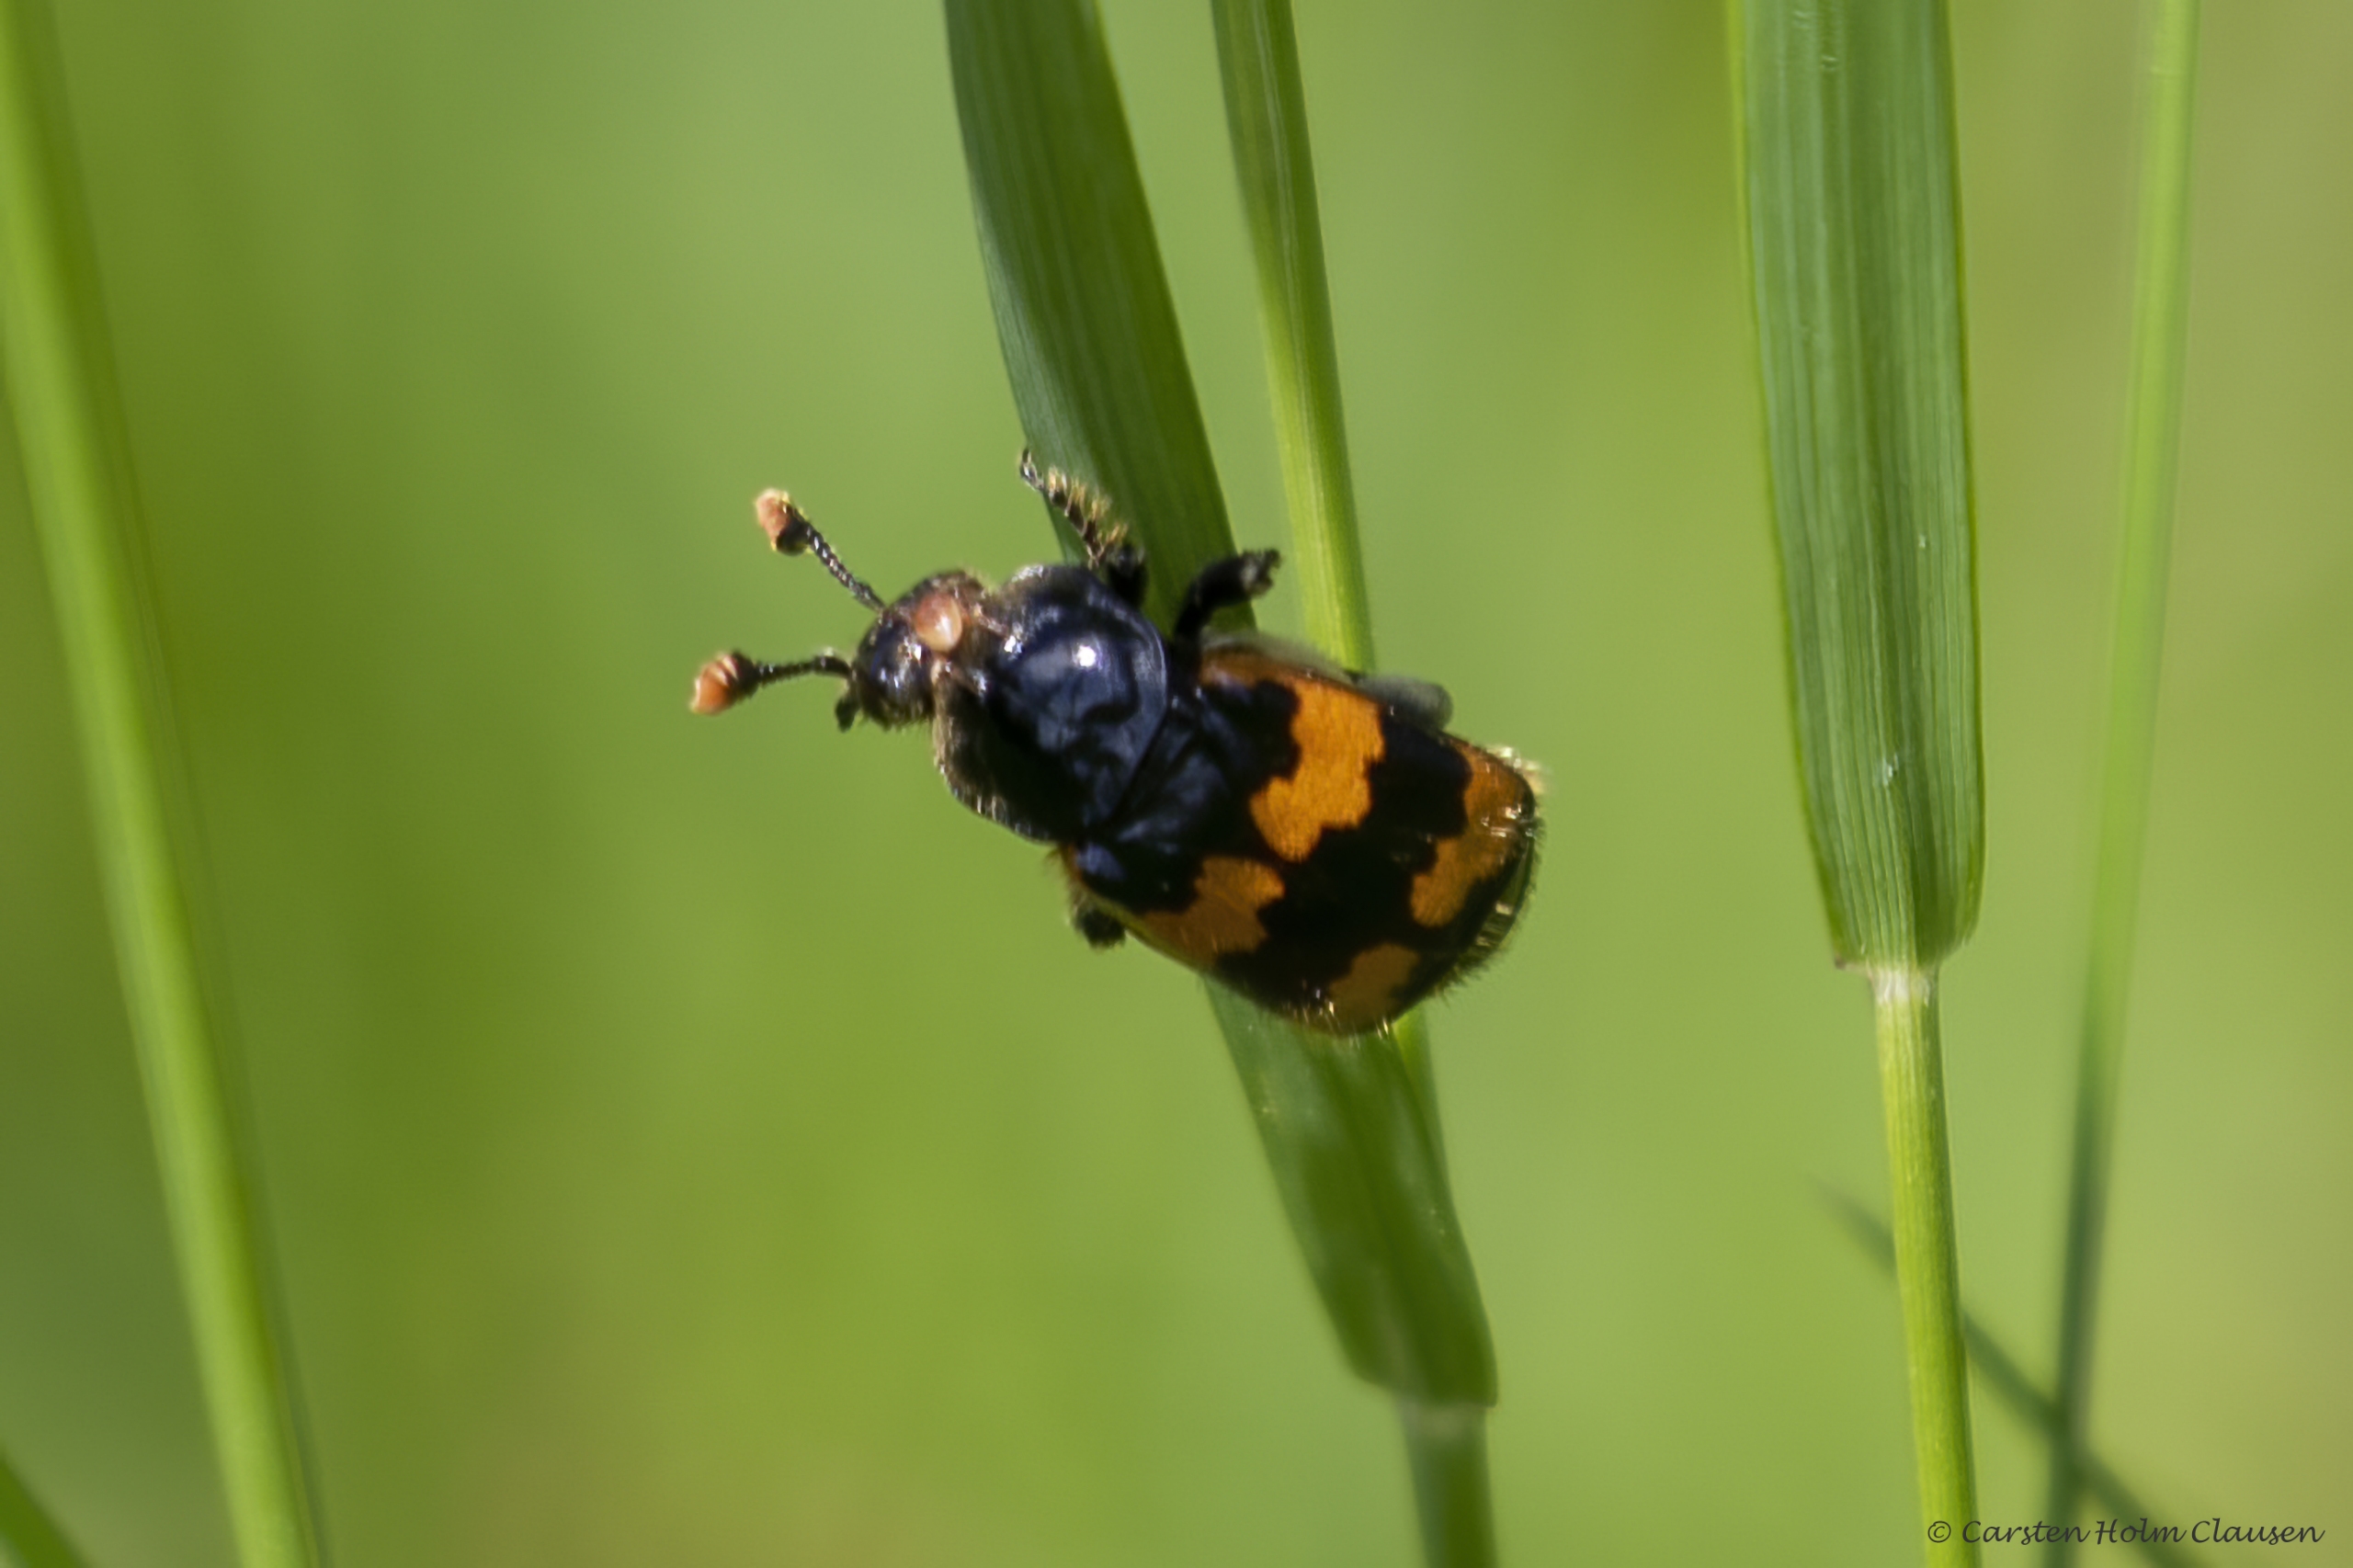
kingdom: Animalia
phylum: Arthropoda
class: Insecta
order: Coleoptera
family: Staphylinidae
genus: Nicrophorus
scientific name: Nicrophorus vespillo
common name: Krumbenet ådselgraver
